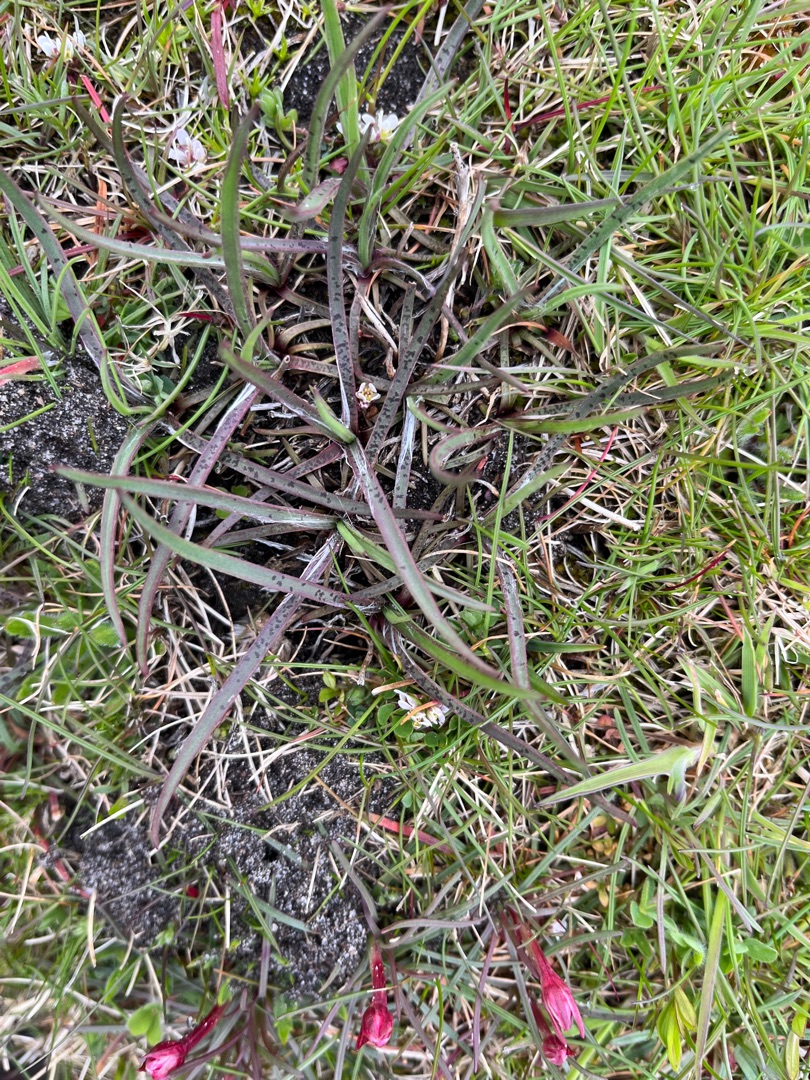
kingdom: Plantae
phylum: Tracheophyta
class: Magnoliopsida
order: Lamiales
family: Plantaginaceae
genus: Plantago
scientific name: Plantago maritima
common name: Strand-vejbred
